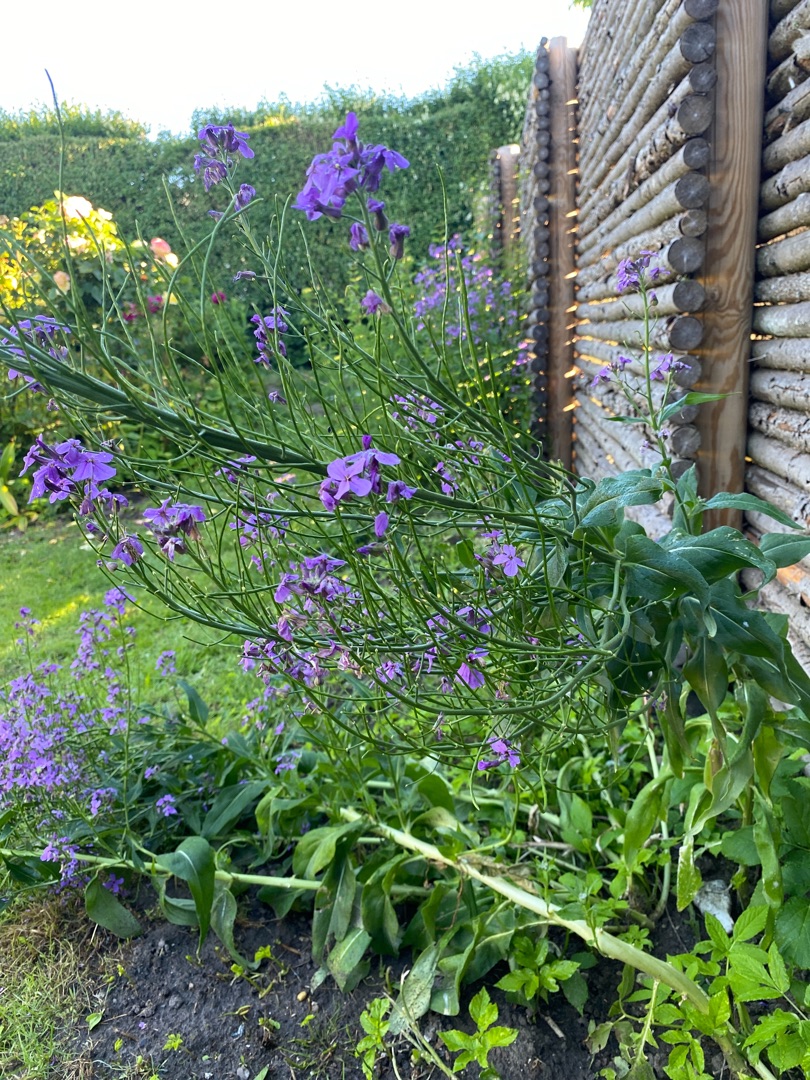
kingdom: Plantae
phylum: Tracheophyta
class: Magnoliopsida
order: Brassicales
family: Brassicaceae
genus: Hesperis
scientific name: Hesperis matronalis
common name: Aftenstjerne
